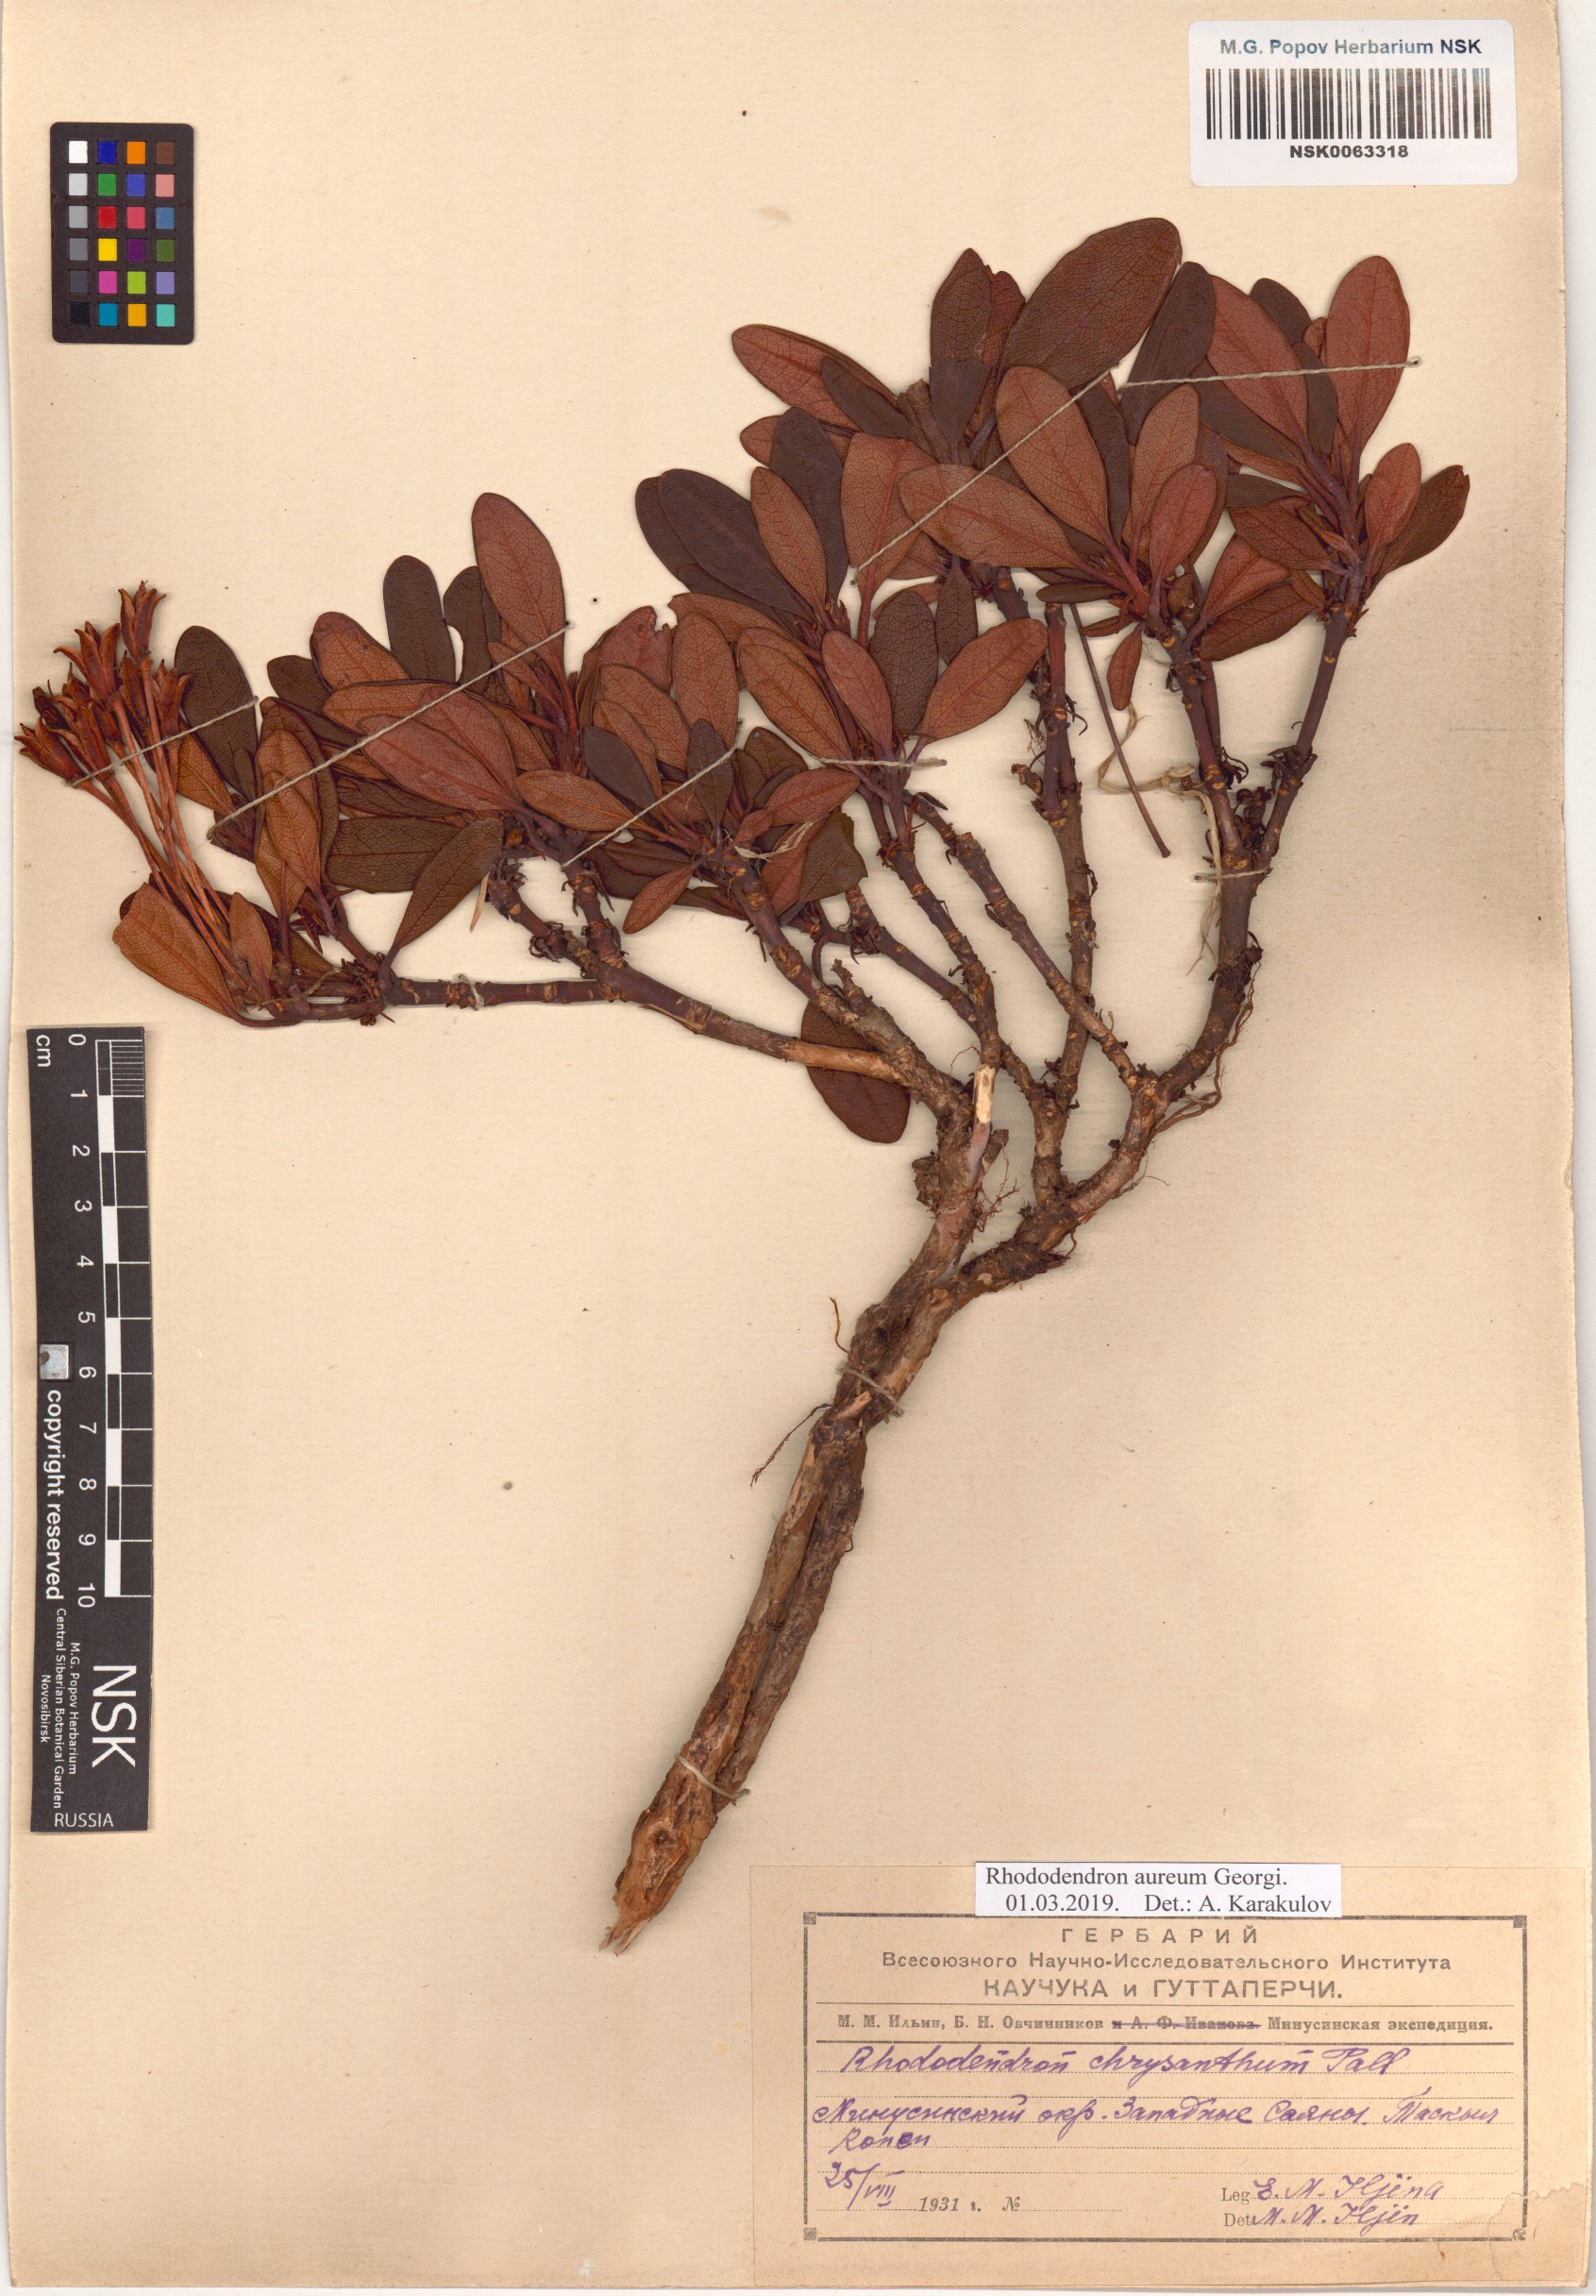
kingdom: Plantae
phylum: Tracheophyta
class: Magnoliopsida
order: Ericales
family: Ericaceae
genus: Rhododendron
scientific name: Rhododendron aureum
